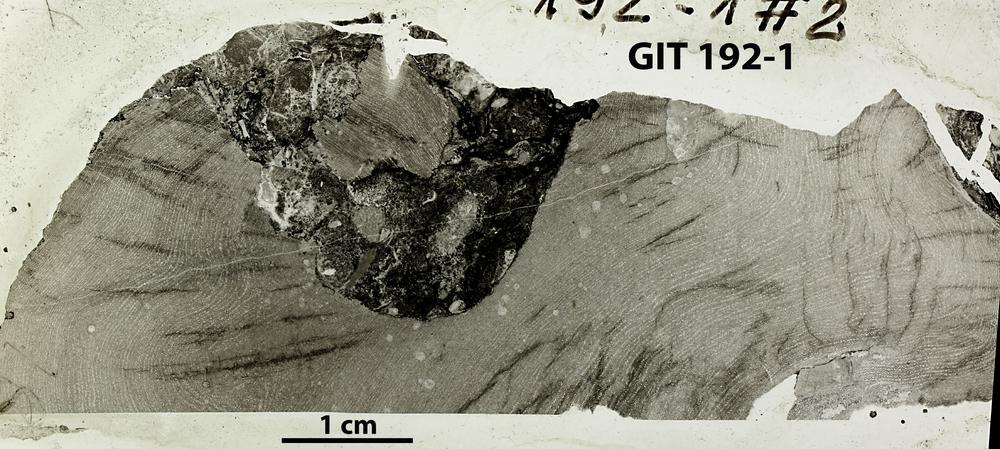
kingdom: Animalia
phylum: Porifera
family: Clathrodictyidae
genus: Clathrodictyon
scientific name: Clathrodictyon boreale
